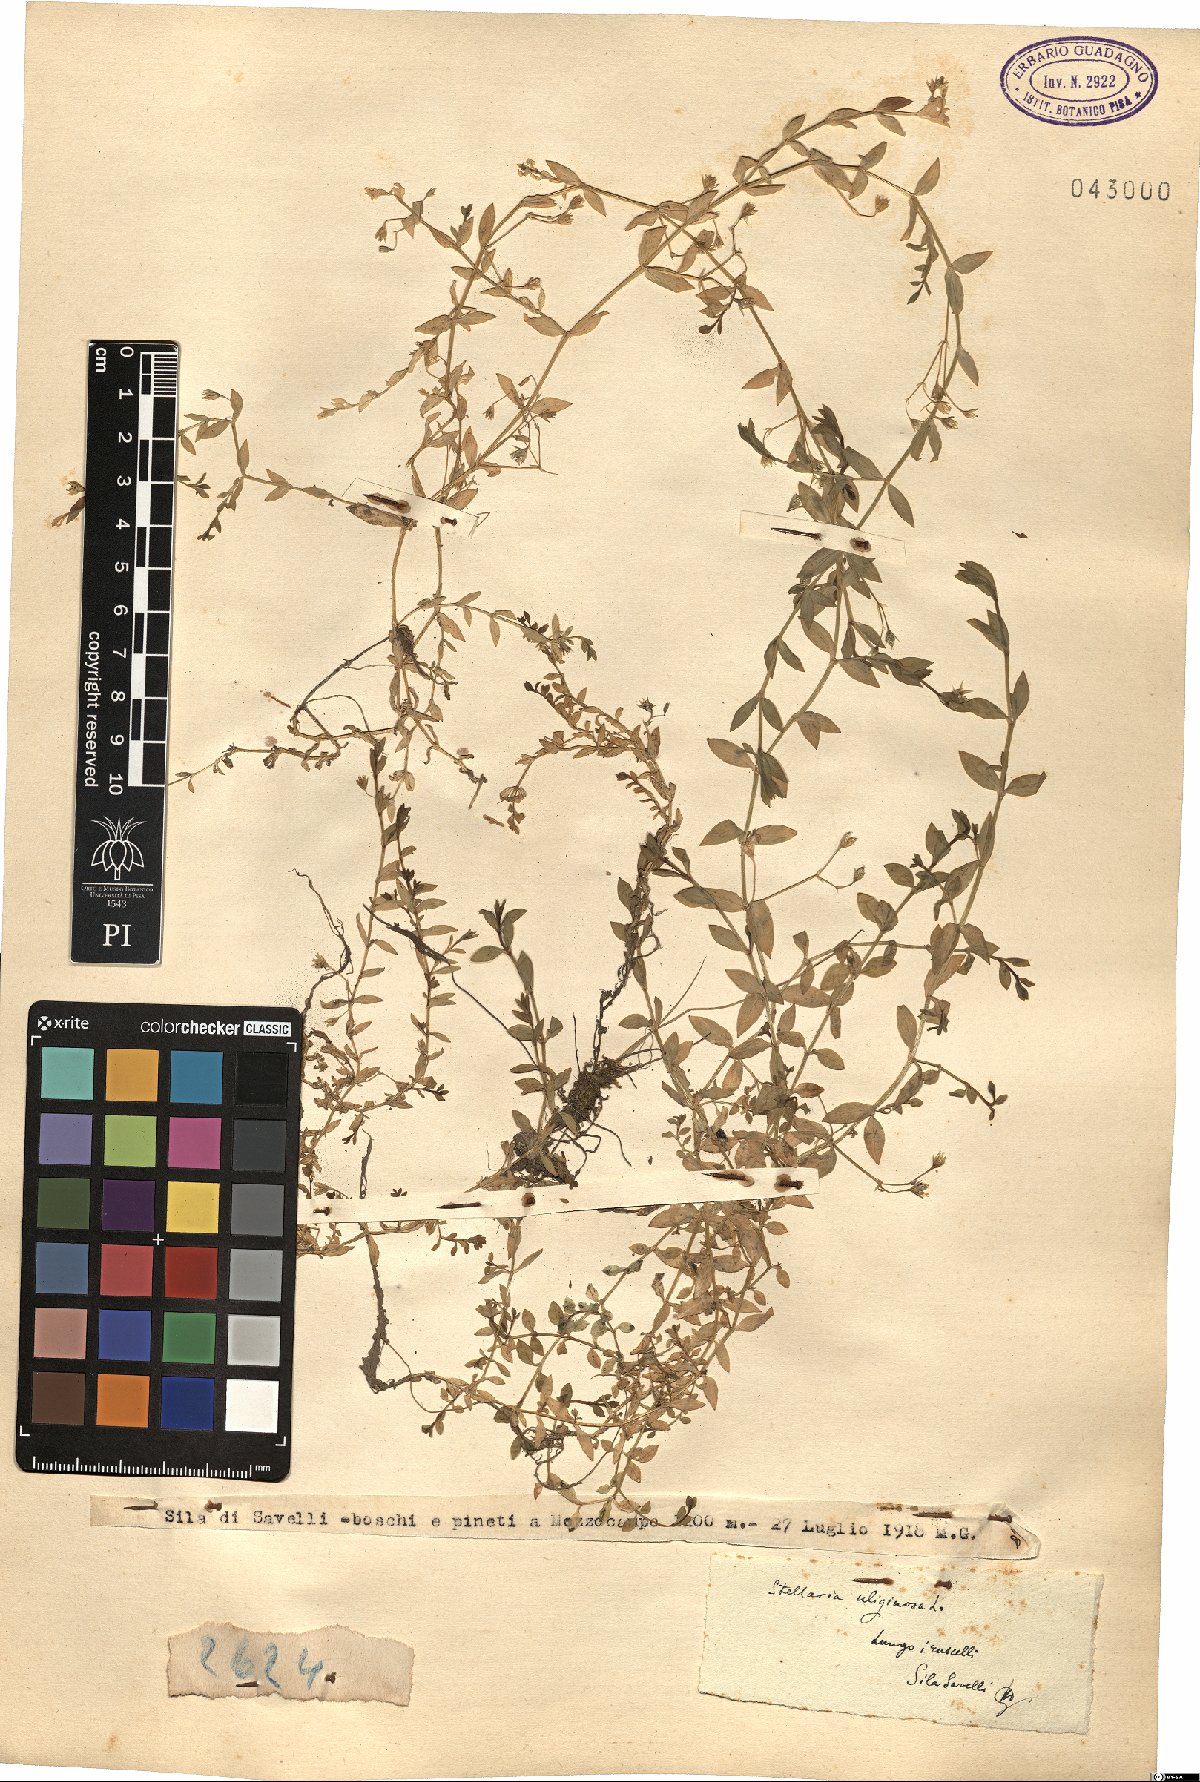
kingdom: Plantae
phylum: Tracheophyta
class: Magnoliopsida
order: Caryophyllales
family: Caryophyllaceae
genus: Stellaria
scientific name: Stellaria alsine
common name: Bog stitchwort
